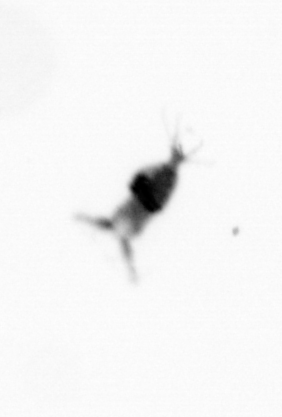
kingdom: Animalia
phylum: Arthropoda
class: Copepoda
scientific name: Copepoda
